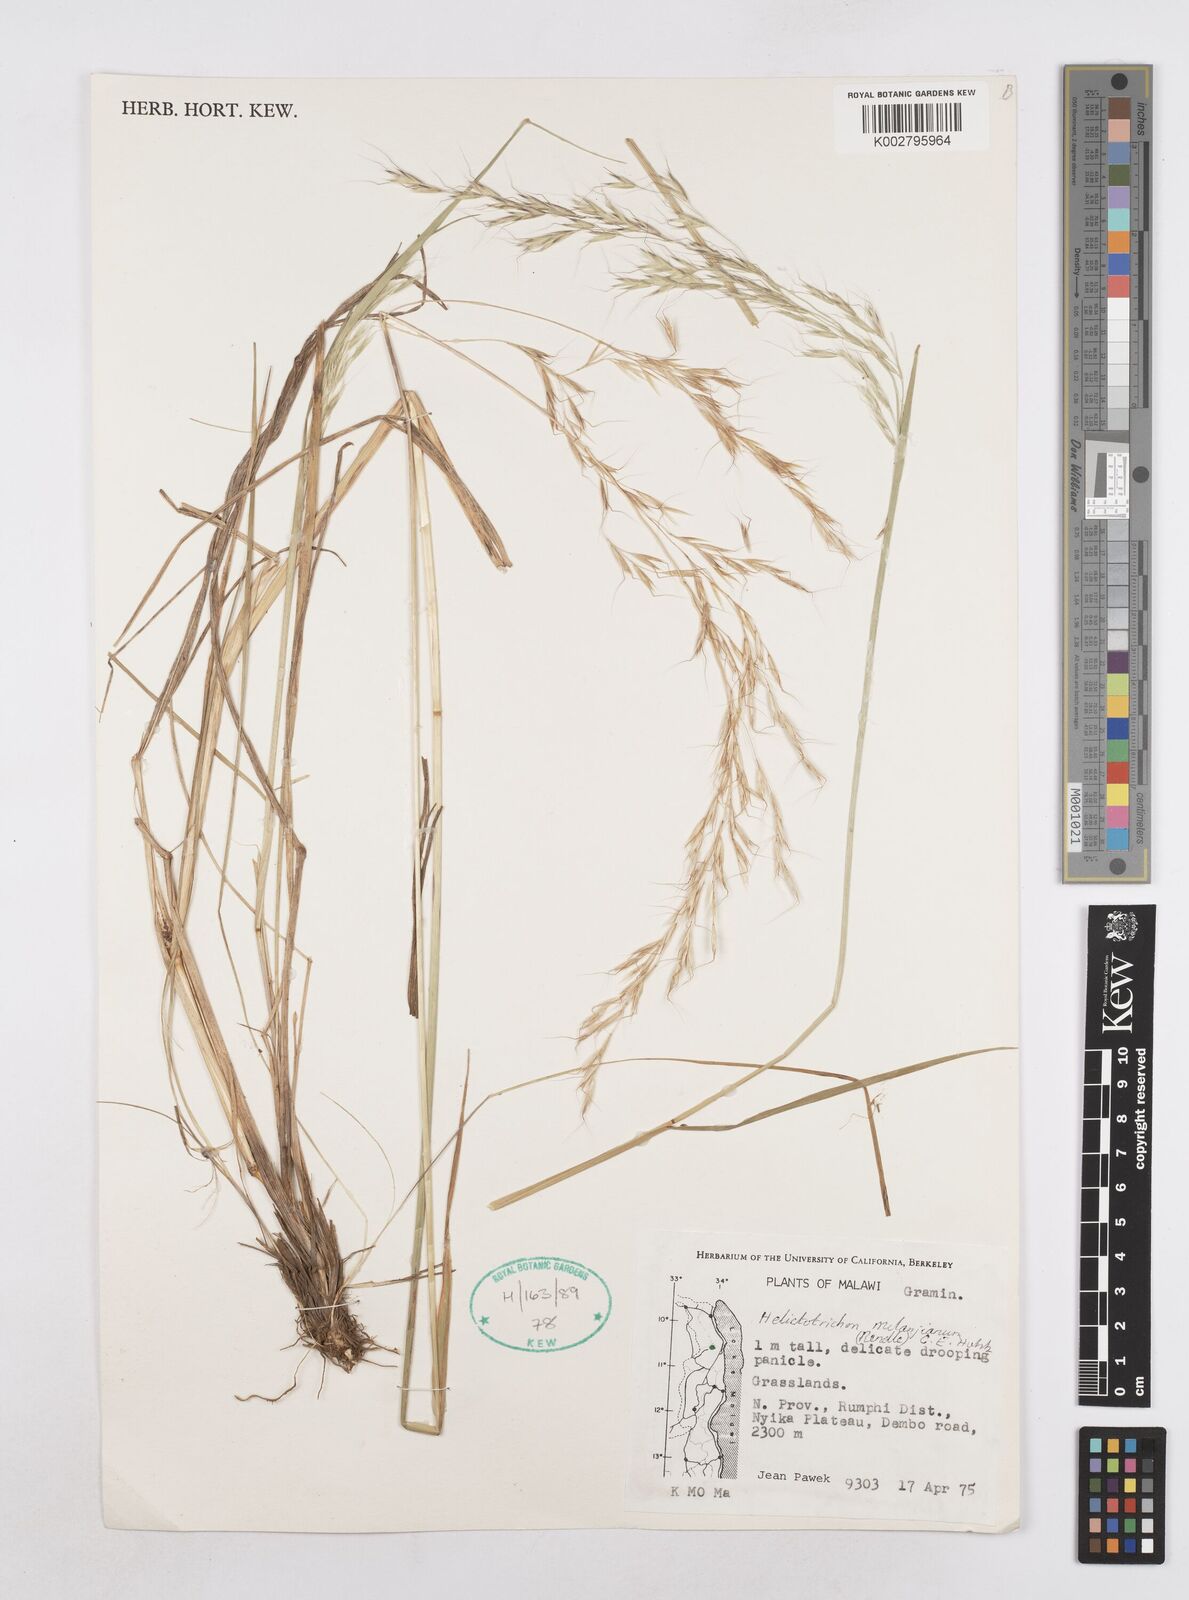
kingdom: Plantae
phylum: Tracheophyta
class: Liliopsida
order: Poales
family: Poaceae
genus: Trisetopsis
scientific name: Trisetopsis milanjiana
